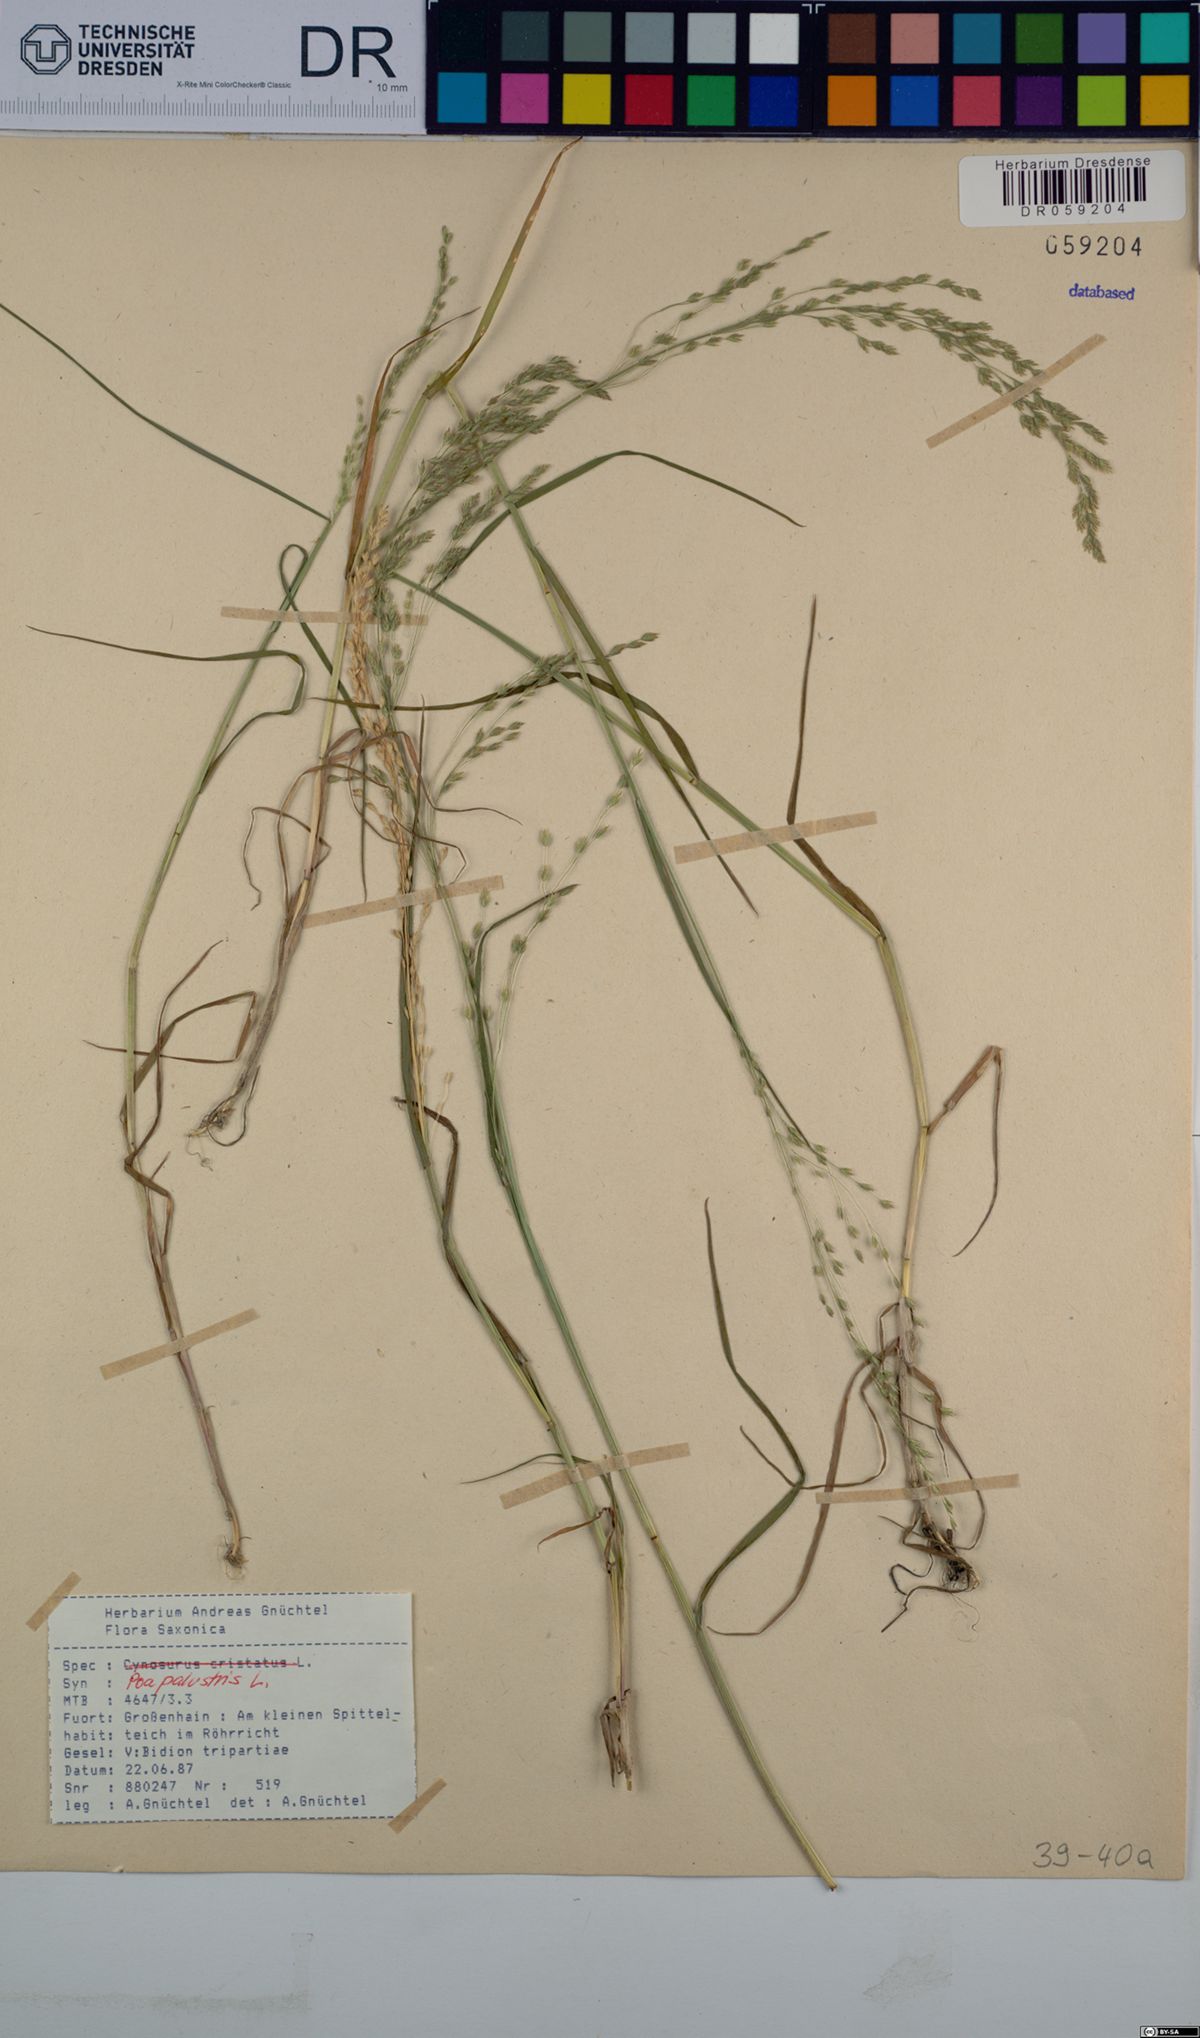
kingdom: Plantae
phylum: Tracheophyta
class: Liliopsida
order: Poales
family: Poaceae
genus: Poa
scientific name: Poa palustris
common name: Swamp meadow-grass
